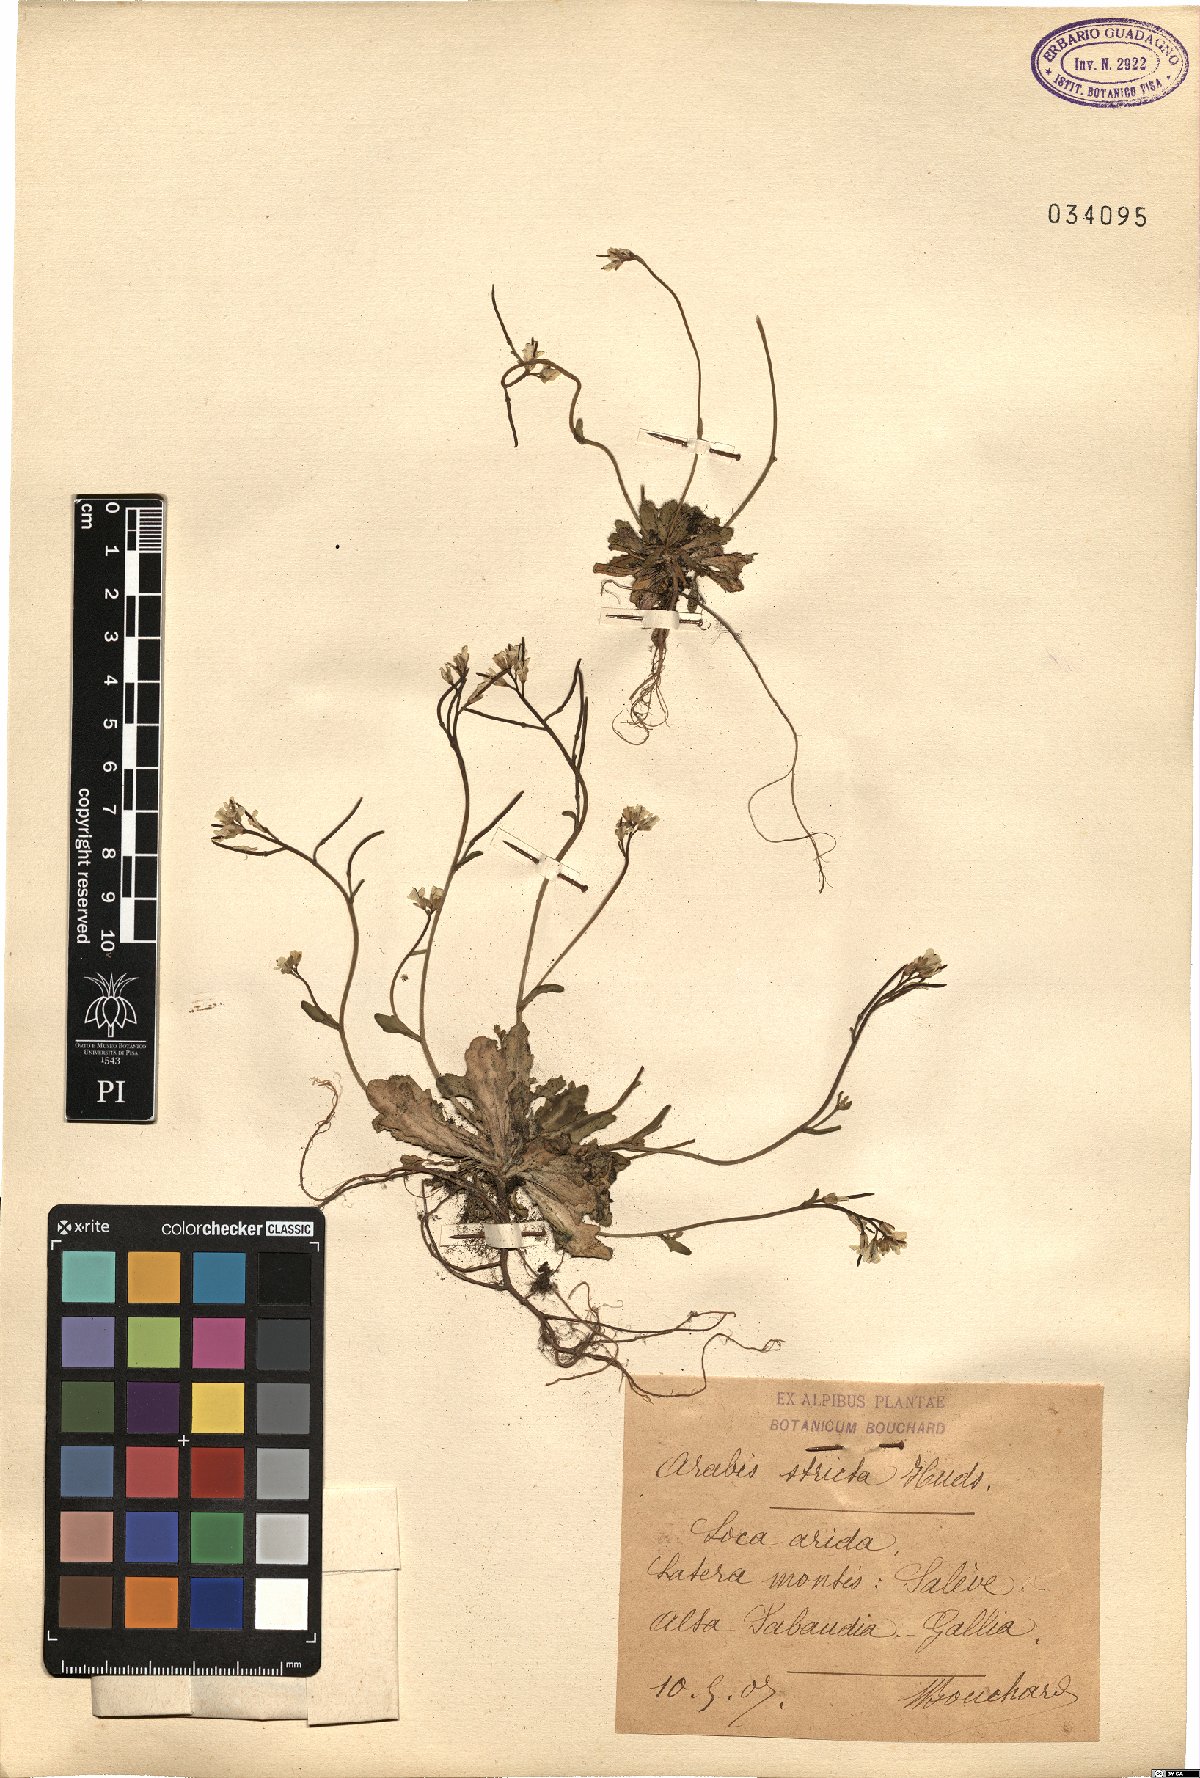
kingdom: Plantae
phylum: Tracheophyta
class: Magnoliopsida
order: Brassicales
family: Brassicaceae
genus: Arabis
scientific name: Arabis scabra
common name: Bristol rock-cress
